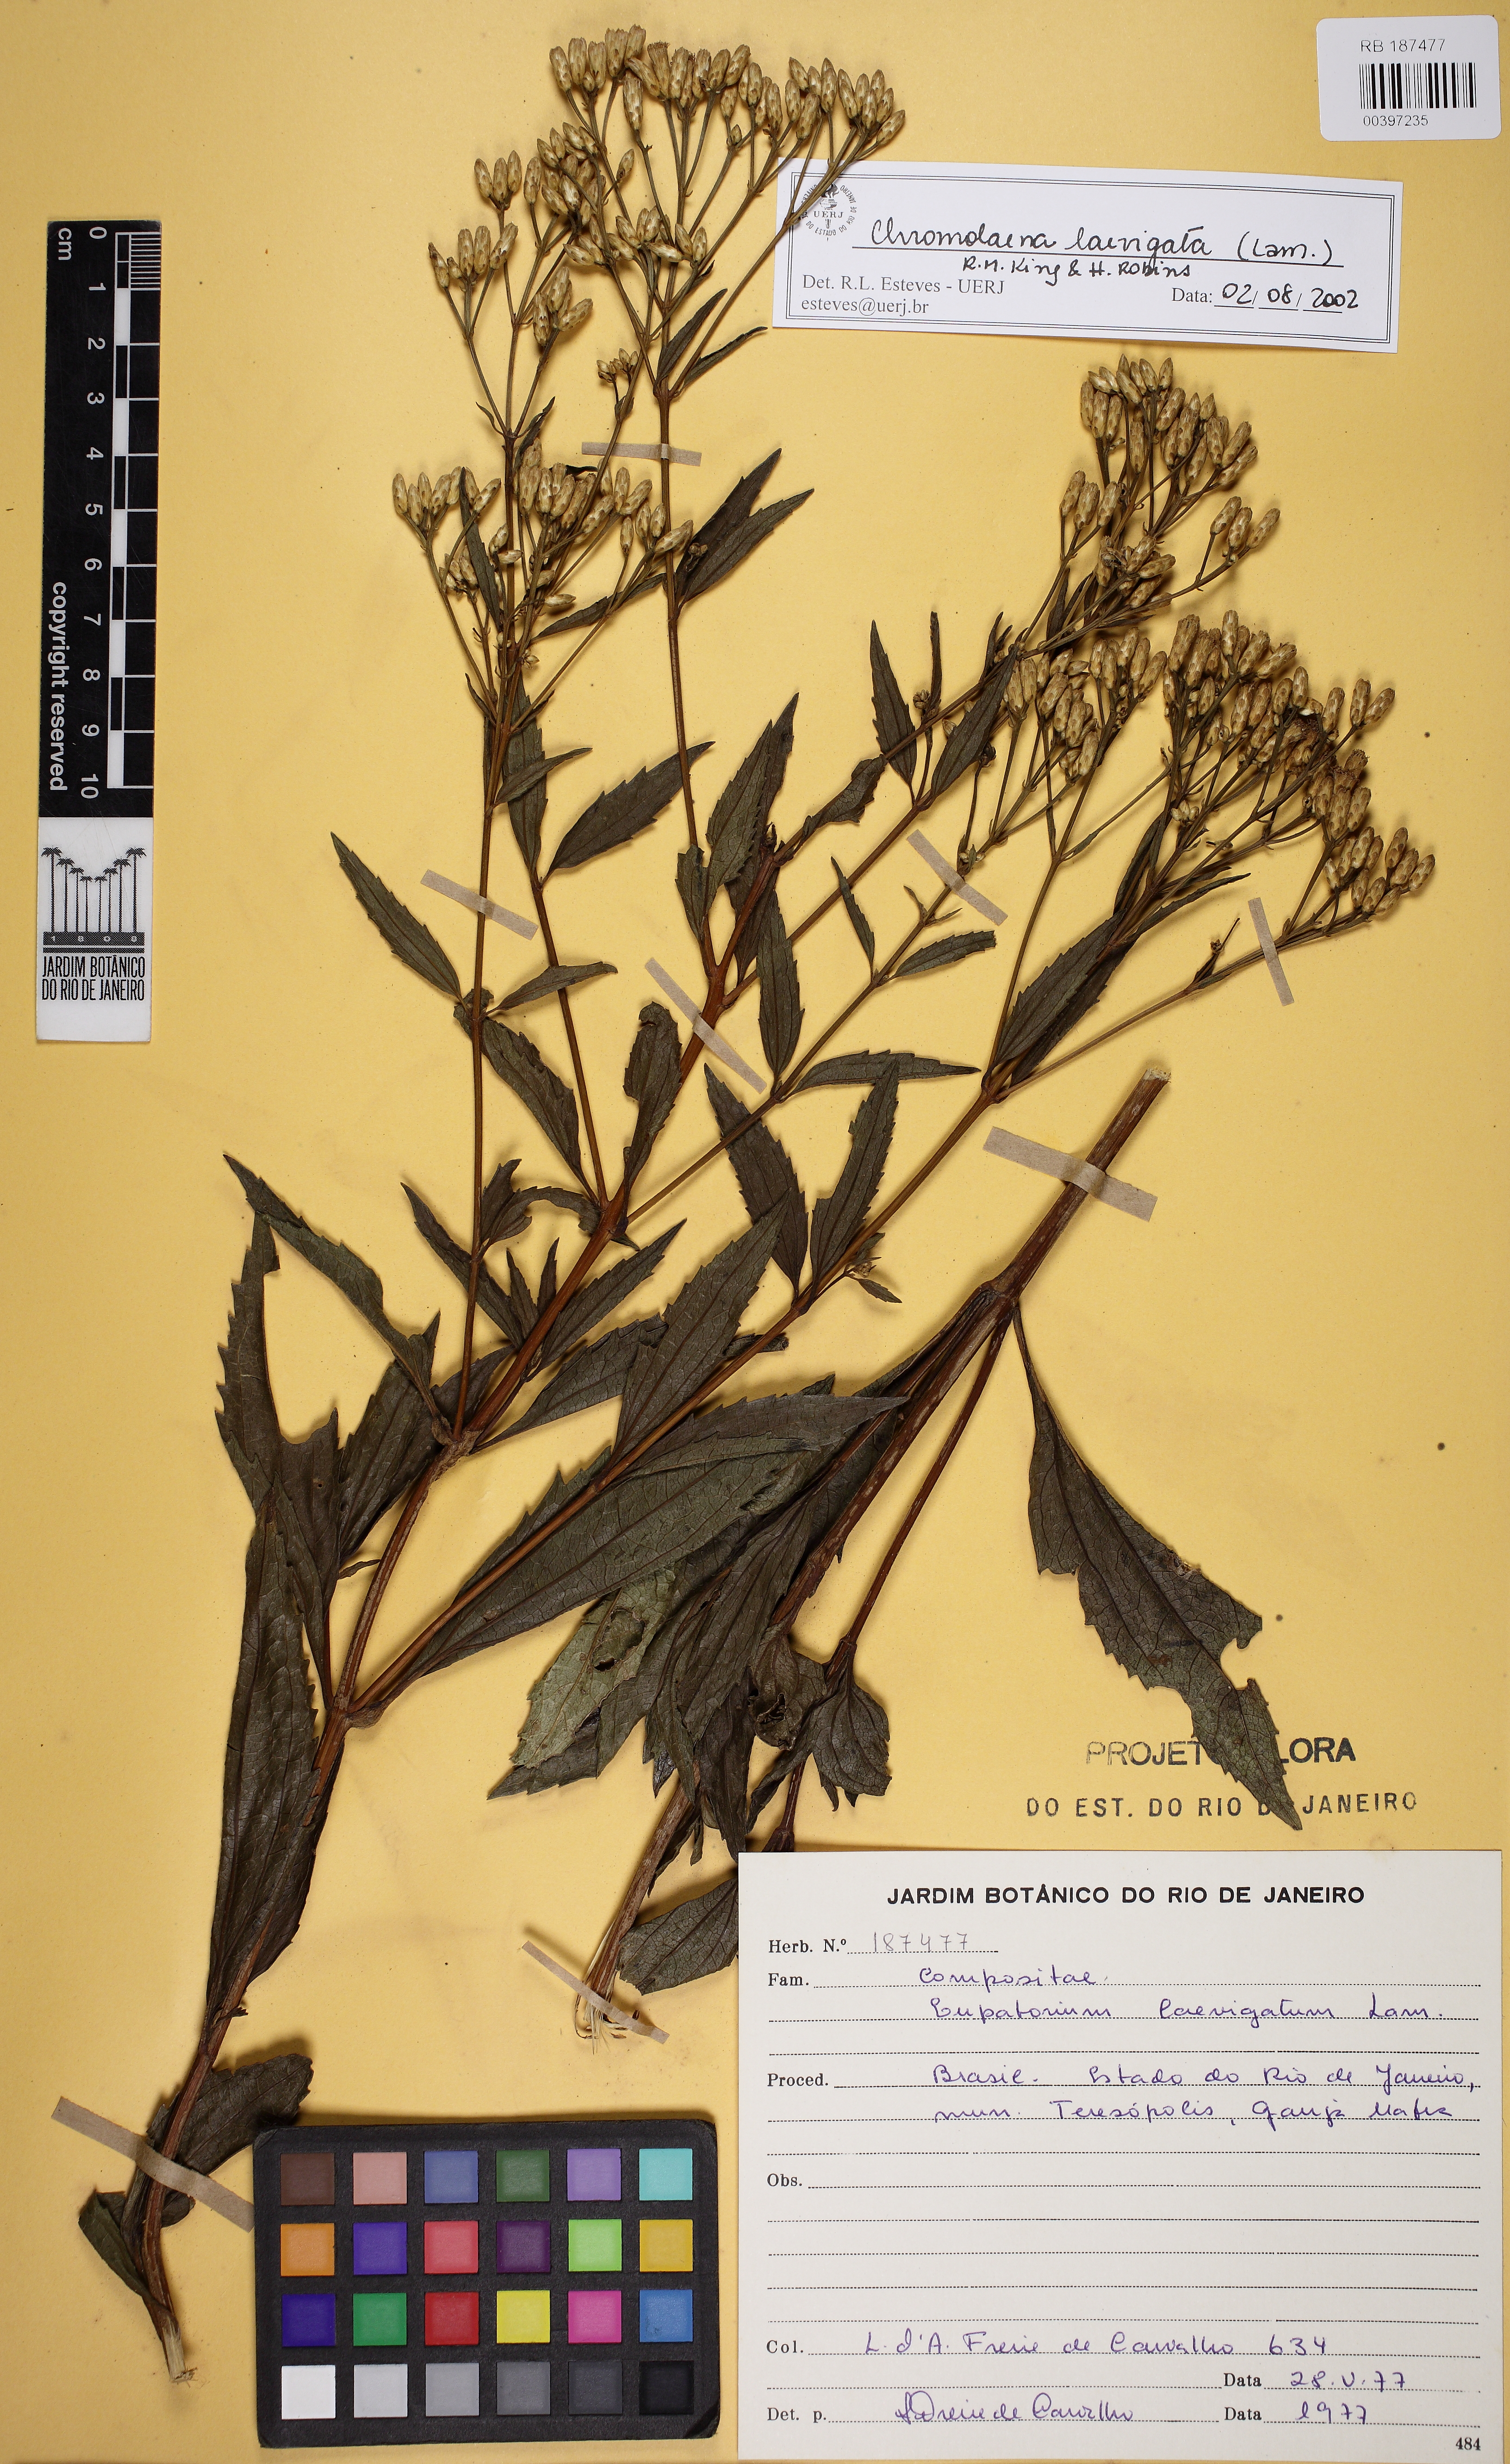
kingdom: Plantae
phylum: Tracheophyta
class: Magnoliopsida
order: Asterales
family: Asteraceae
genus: Chromolaena
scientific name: Chromolaena laevigata
